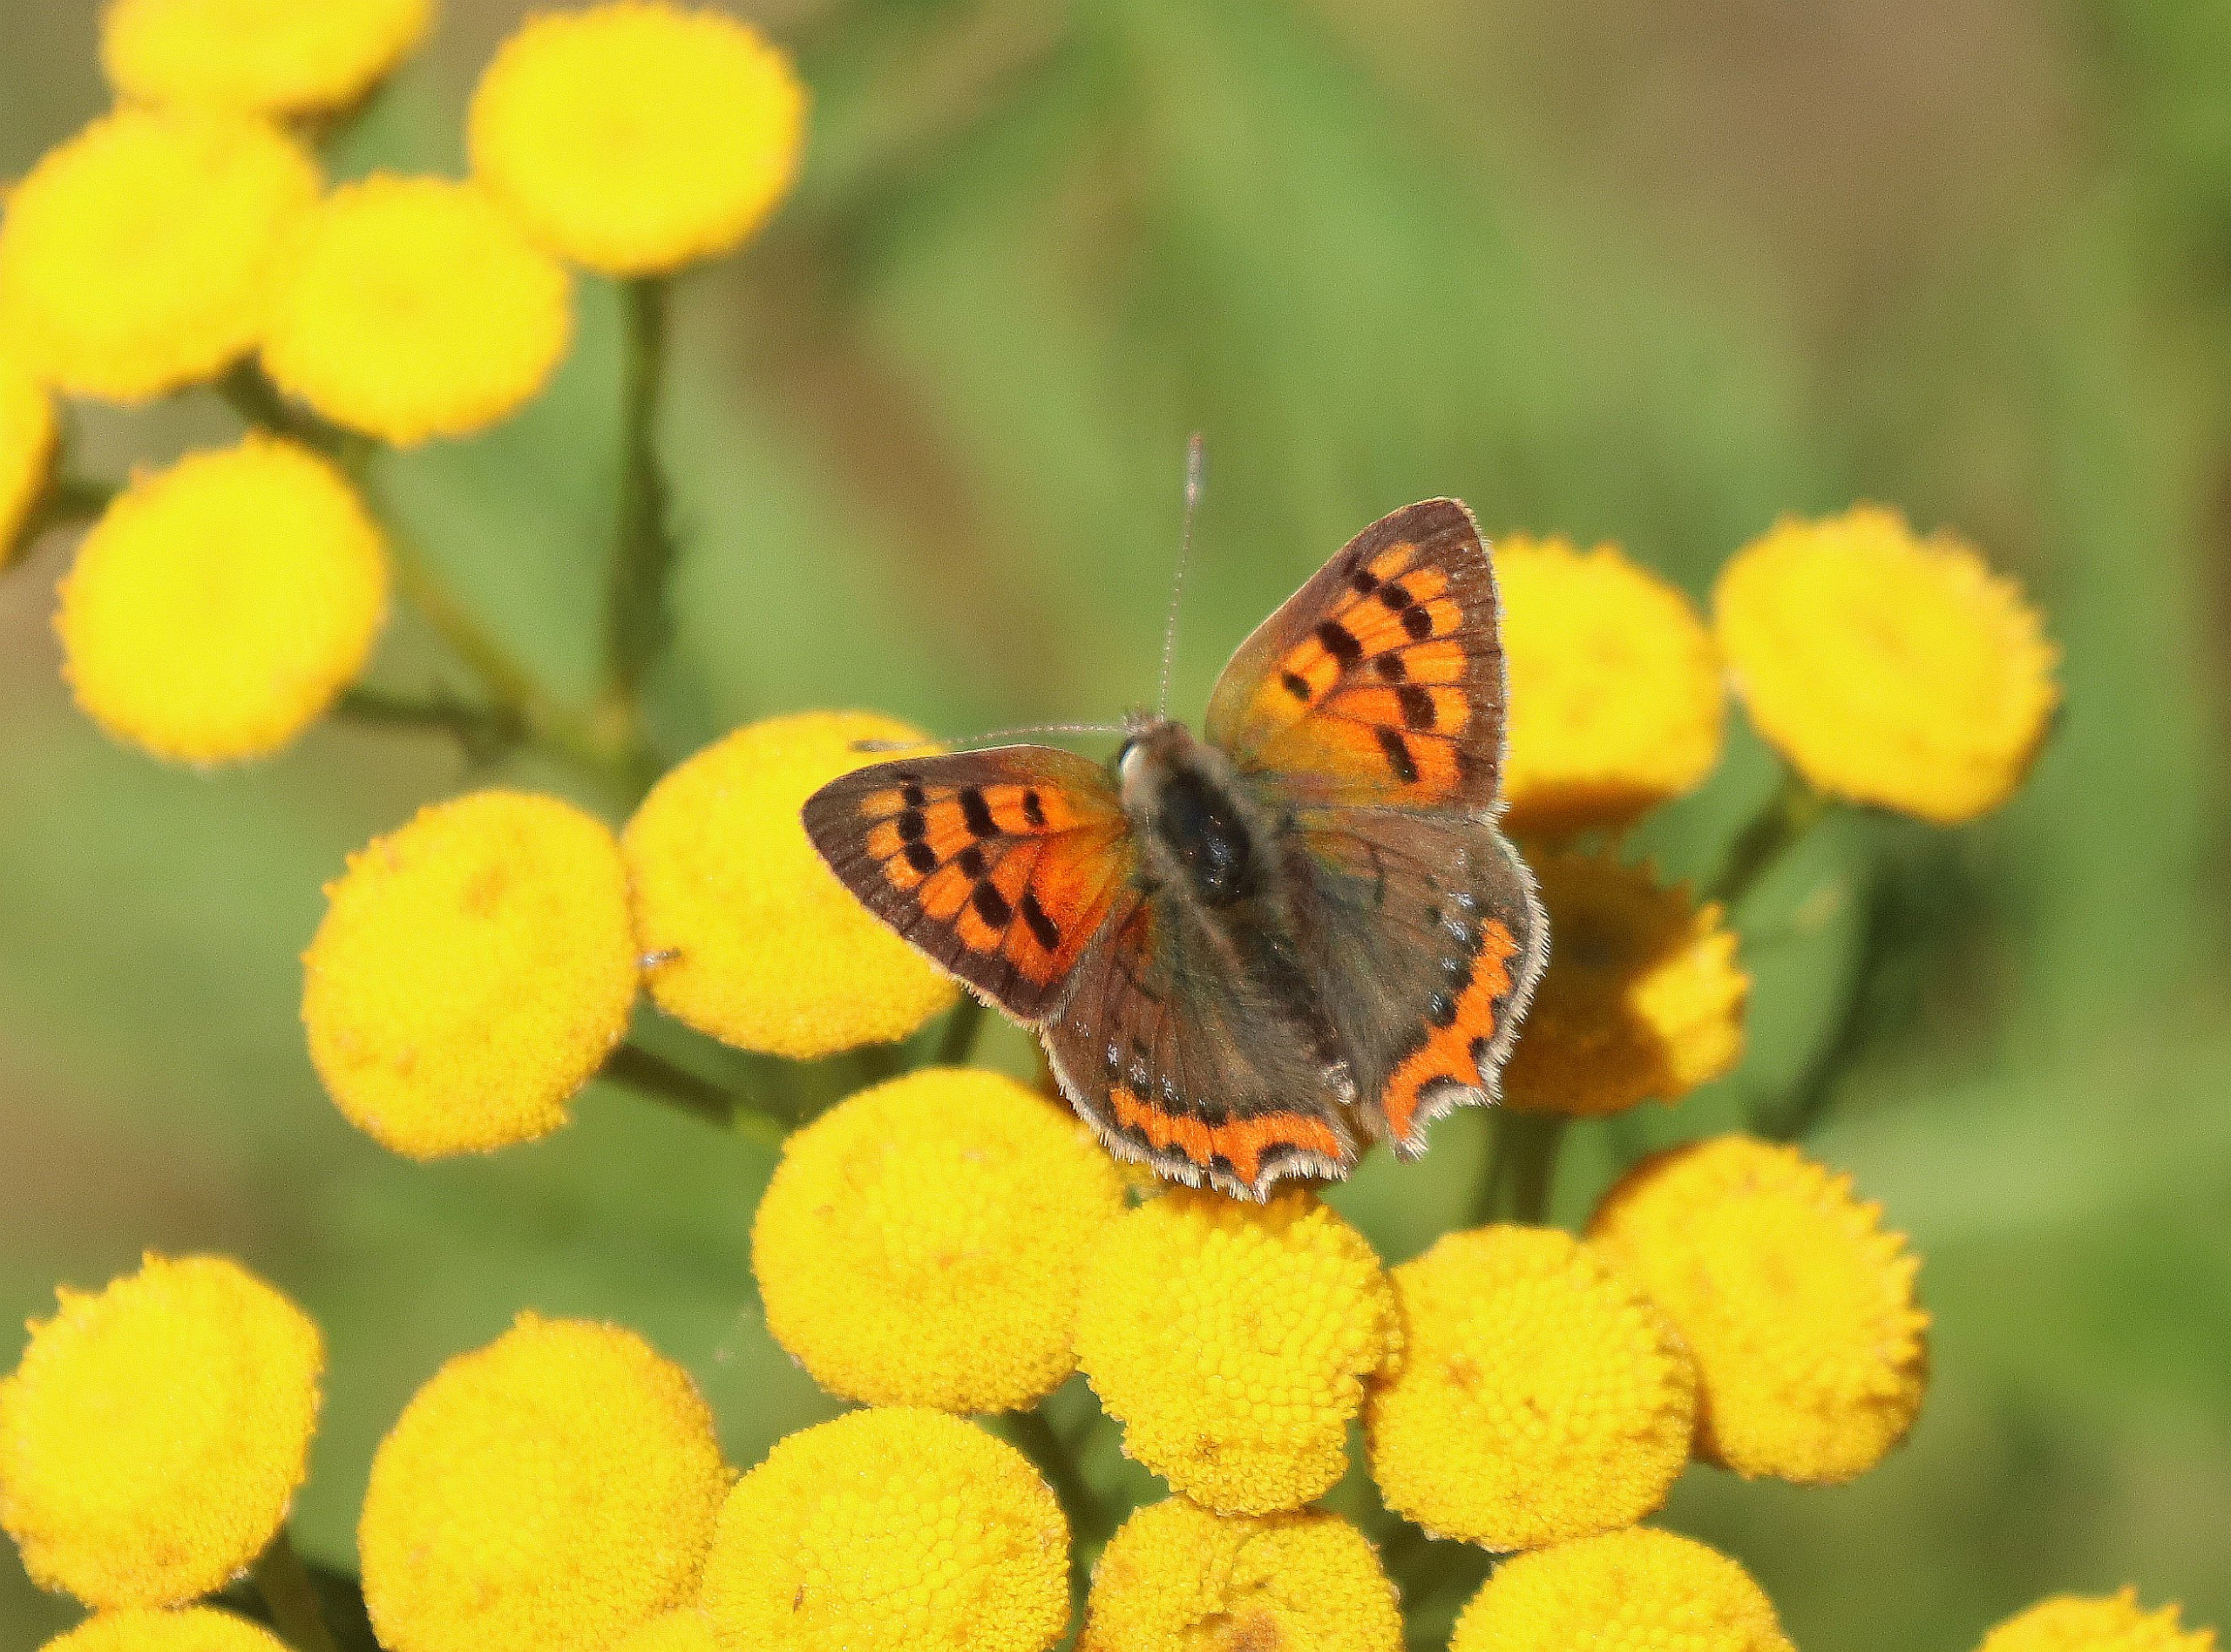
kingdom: Animalia
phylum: Arthropoda
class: Insecta
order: Lepidoptera
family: Lycaenidae
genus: Lycaena
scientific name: Lycaena phlaeas
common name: Lille ildfugl
